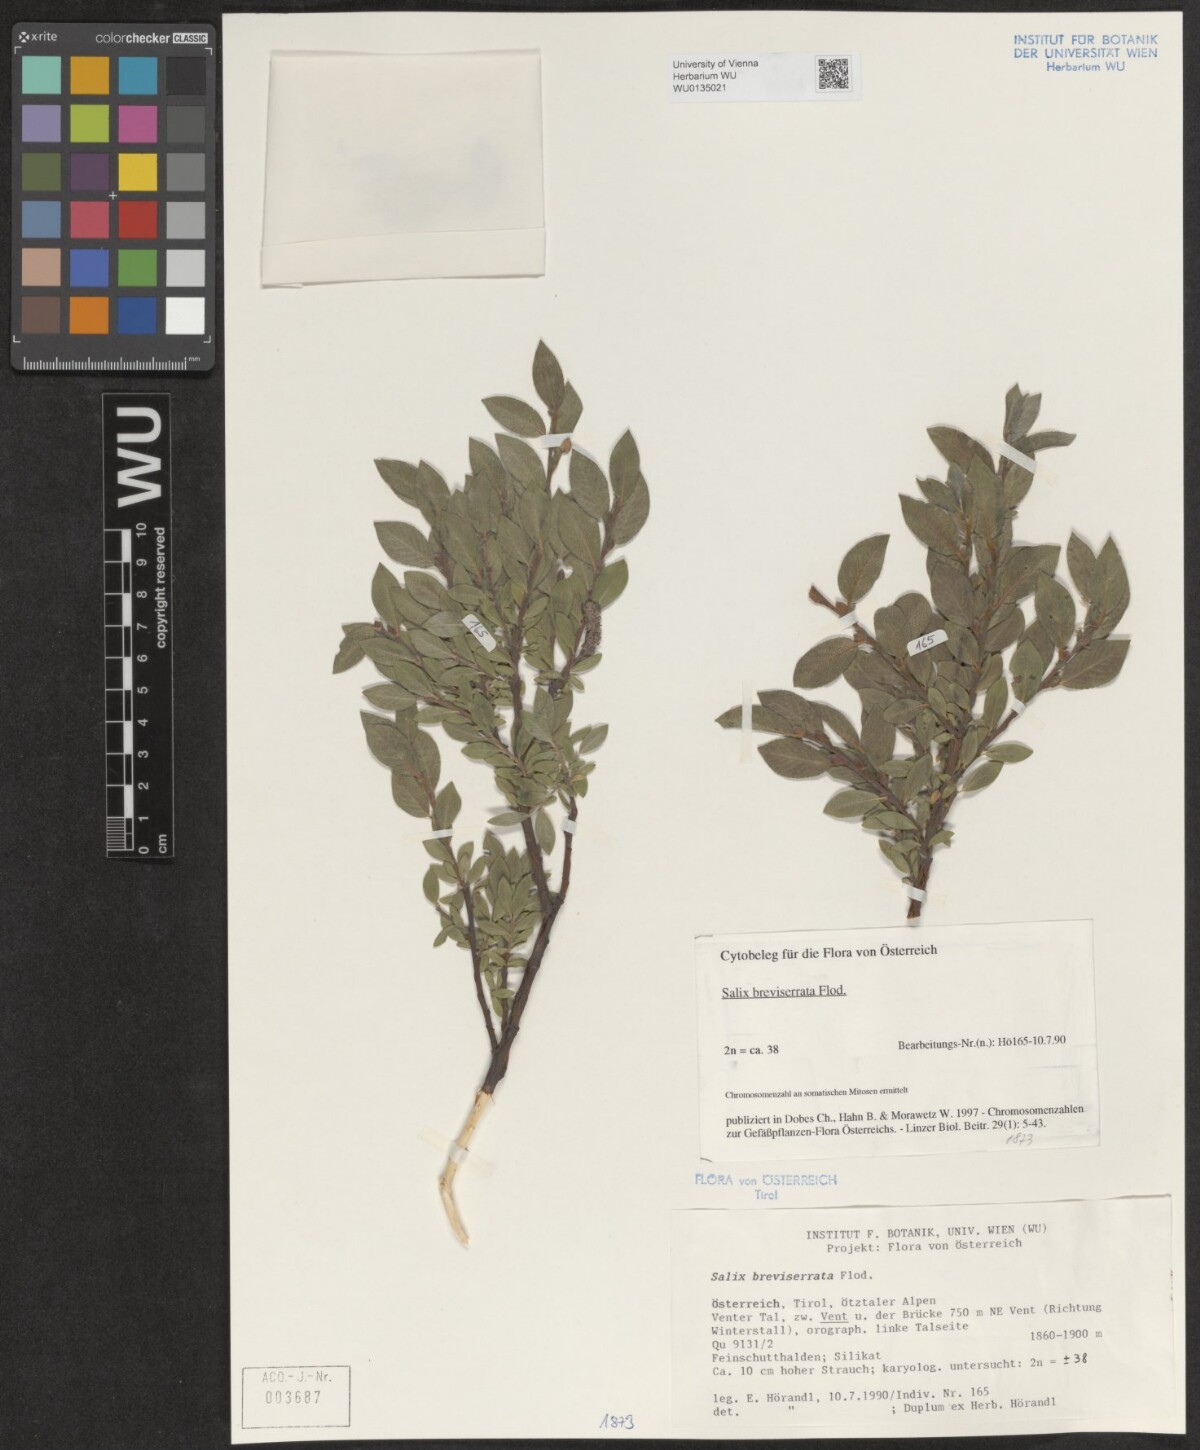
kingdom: Plantae
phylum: Tracheophyta
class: Magnoliopsida
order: Malpighiales
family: Salicaceae
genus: Salix
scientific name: Salix breviserrata
